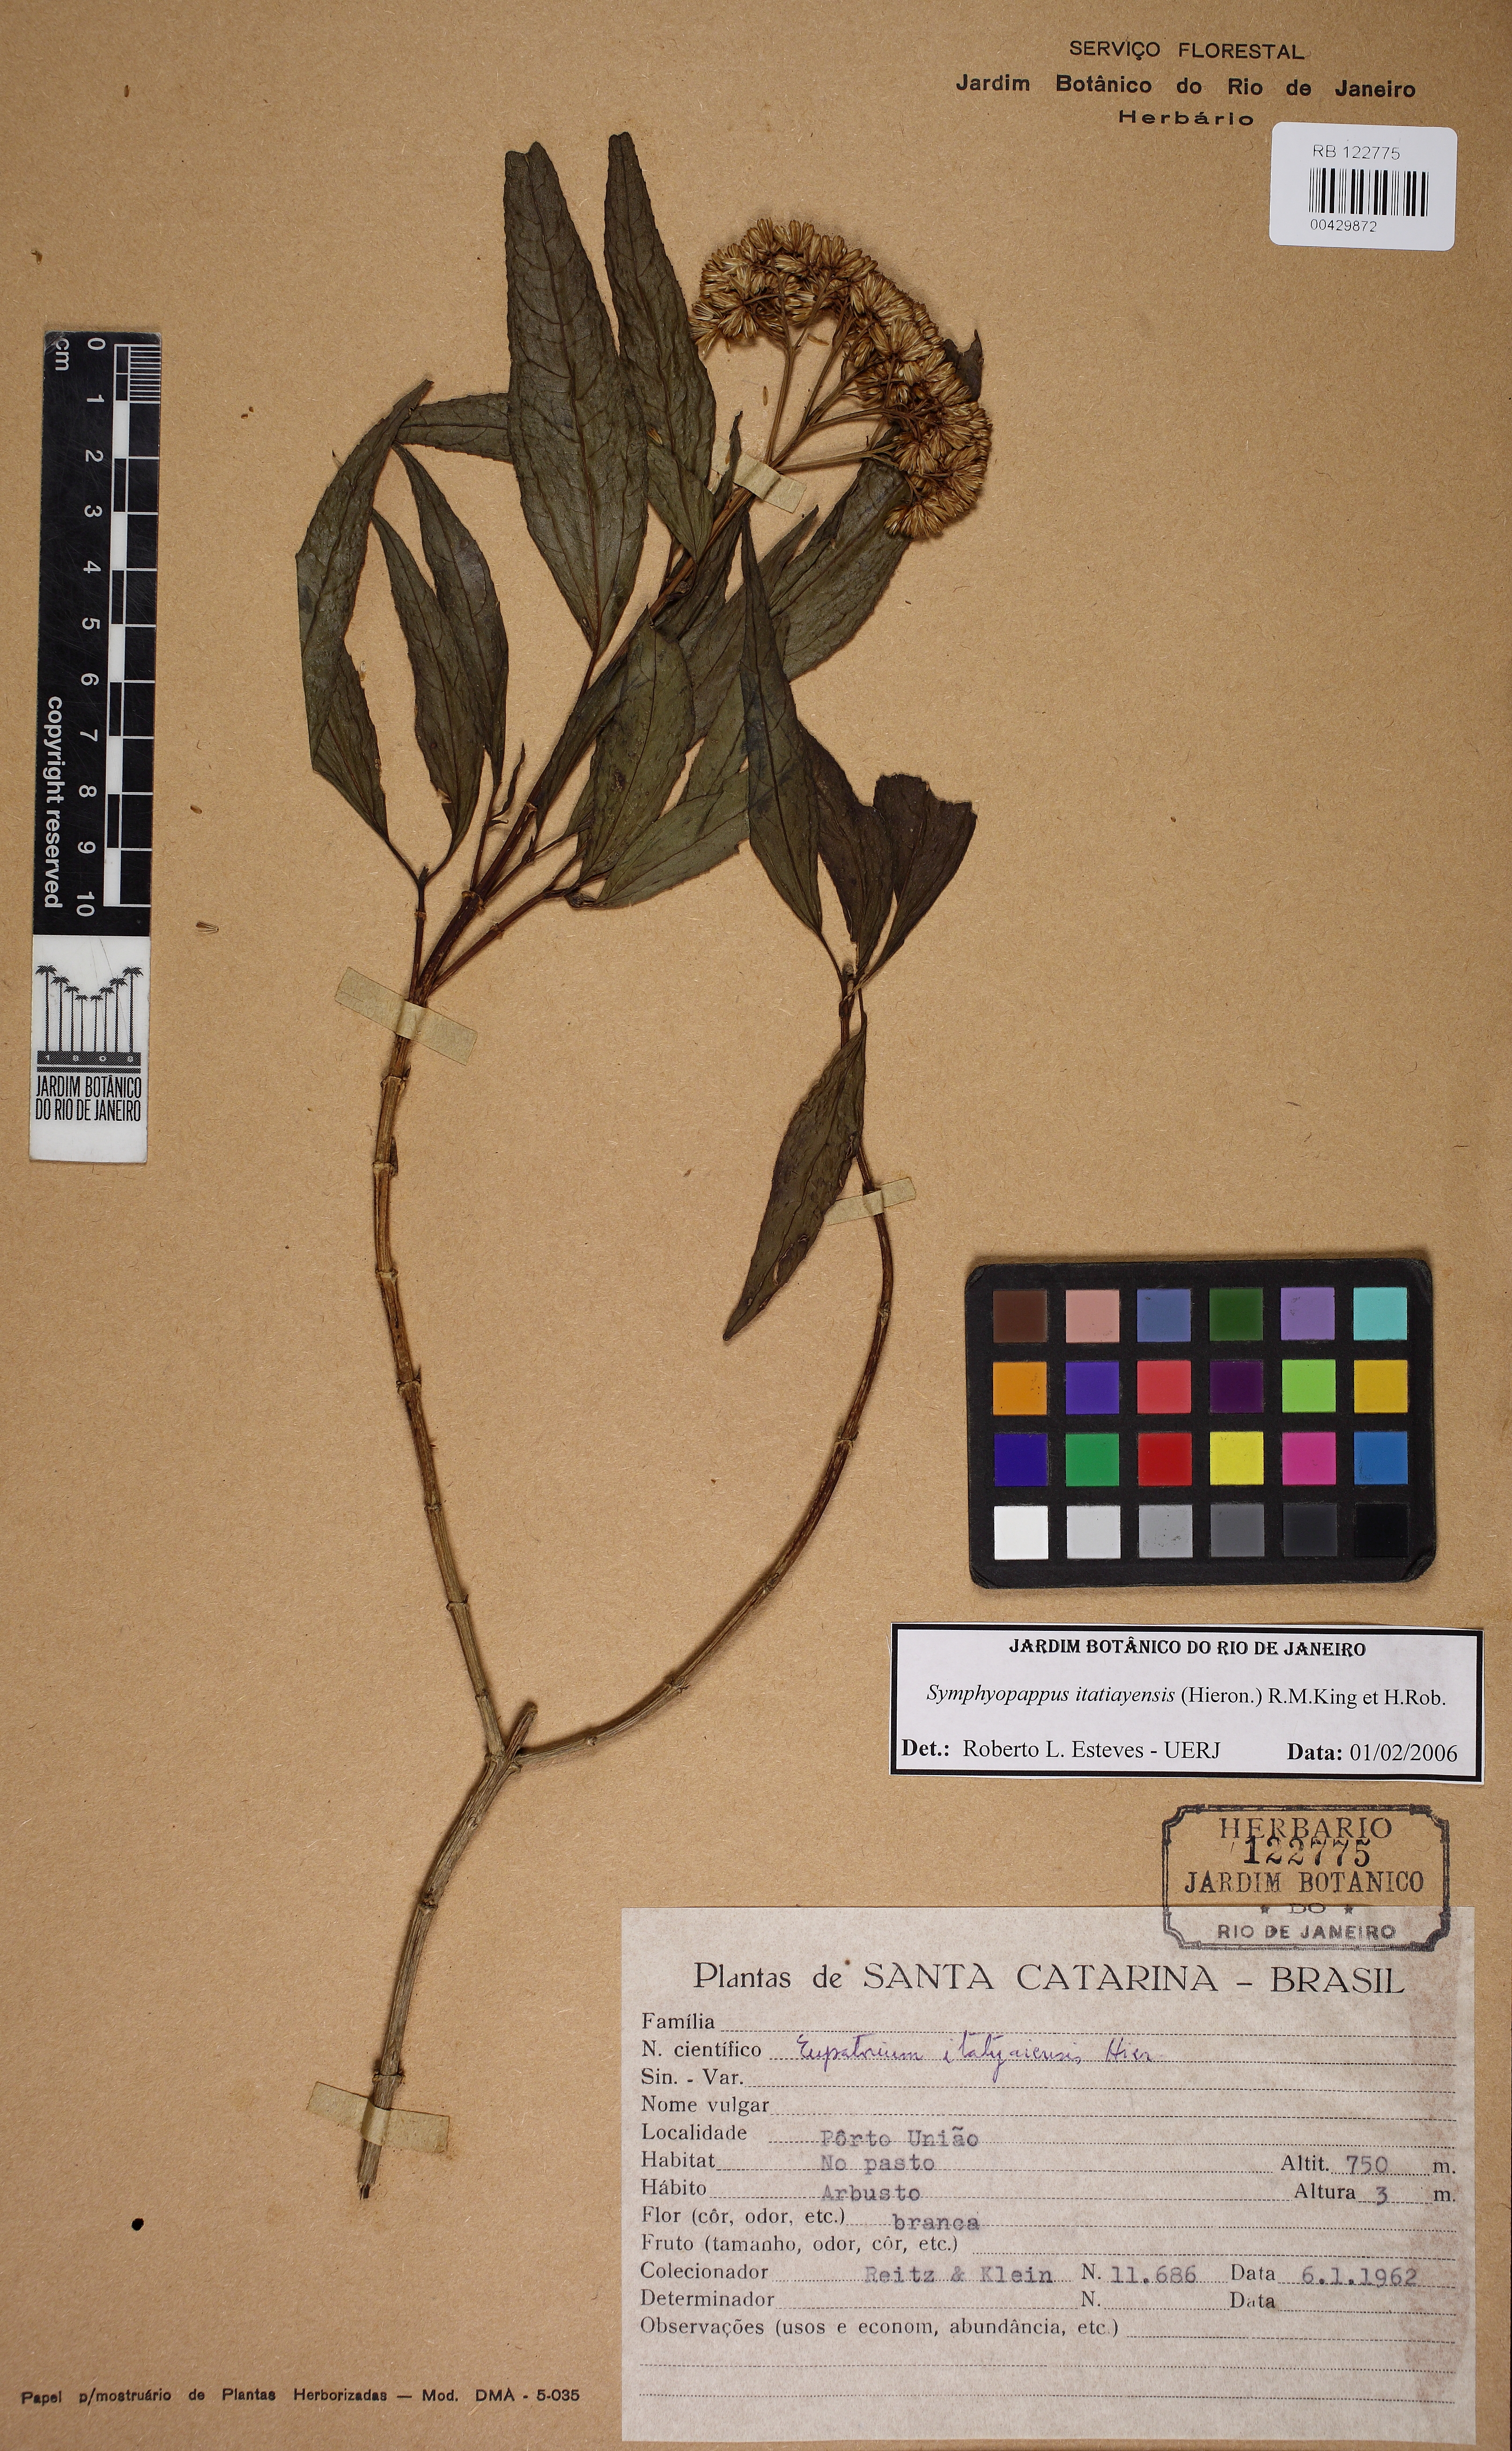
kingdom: Plantae
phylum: Tracheophyta
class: Magnoliopsida
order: Asterales
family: Asteraceae
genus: Symphyopappus
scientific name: Symphyopappus itatiayensis
